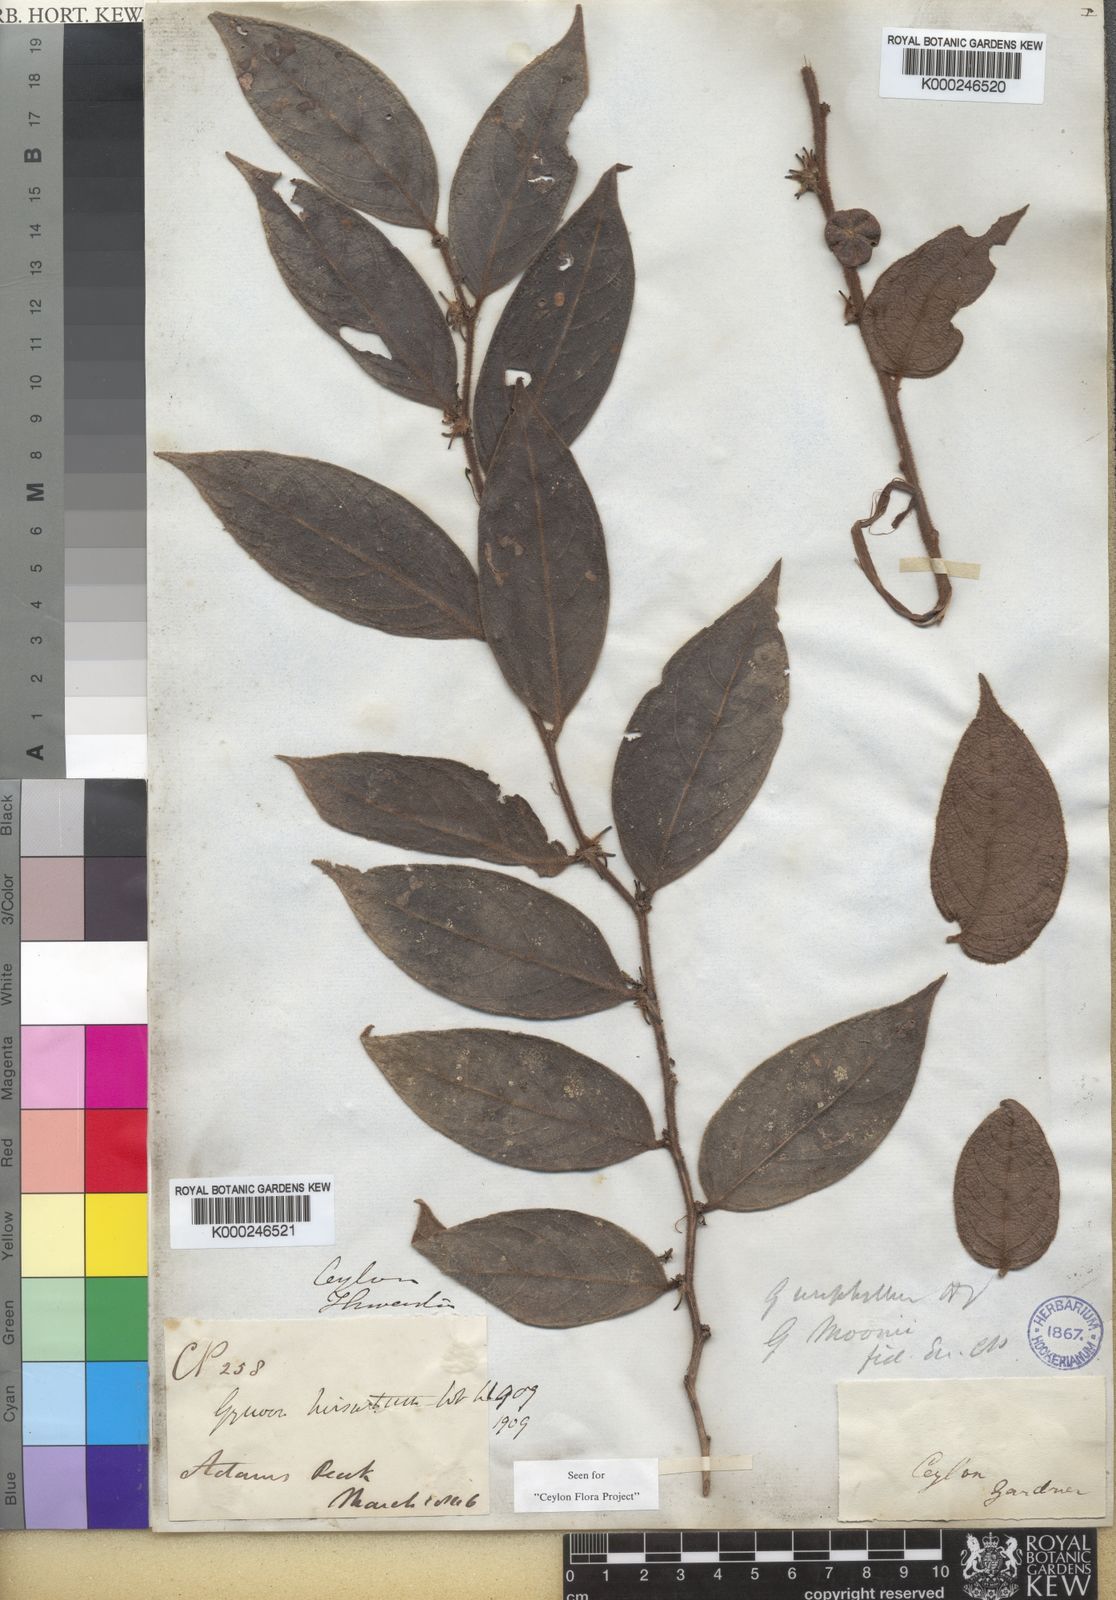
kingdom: Plantae
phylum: Tracheophyta
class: Magnoliopsida
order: Malpighiales
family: Phyllanthaceae
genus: Glochidion
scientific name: Glochidion moonii
